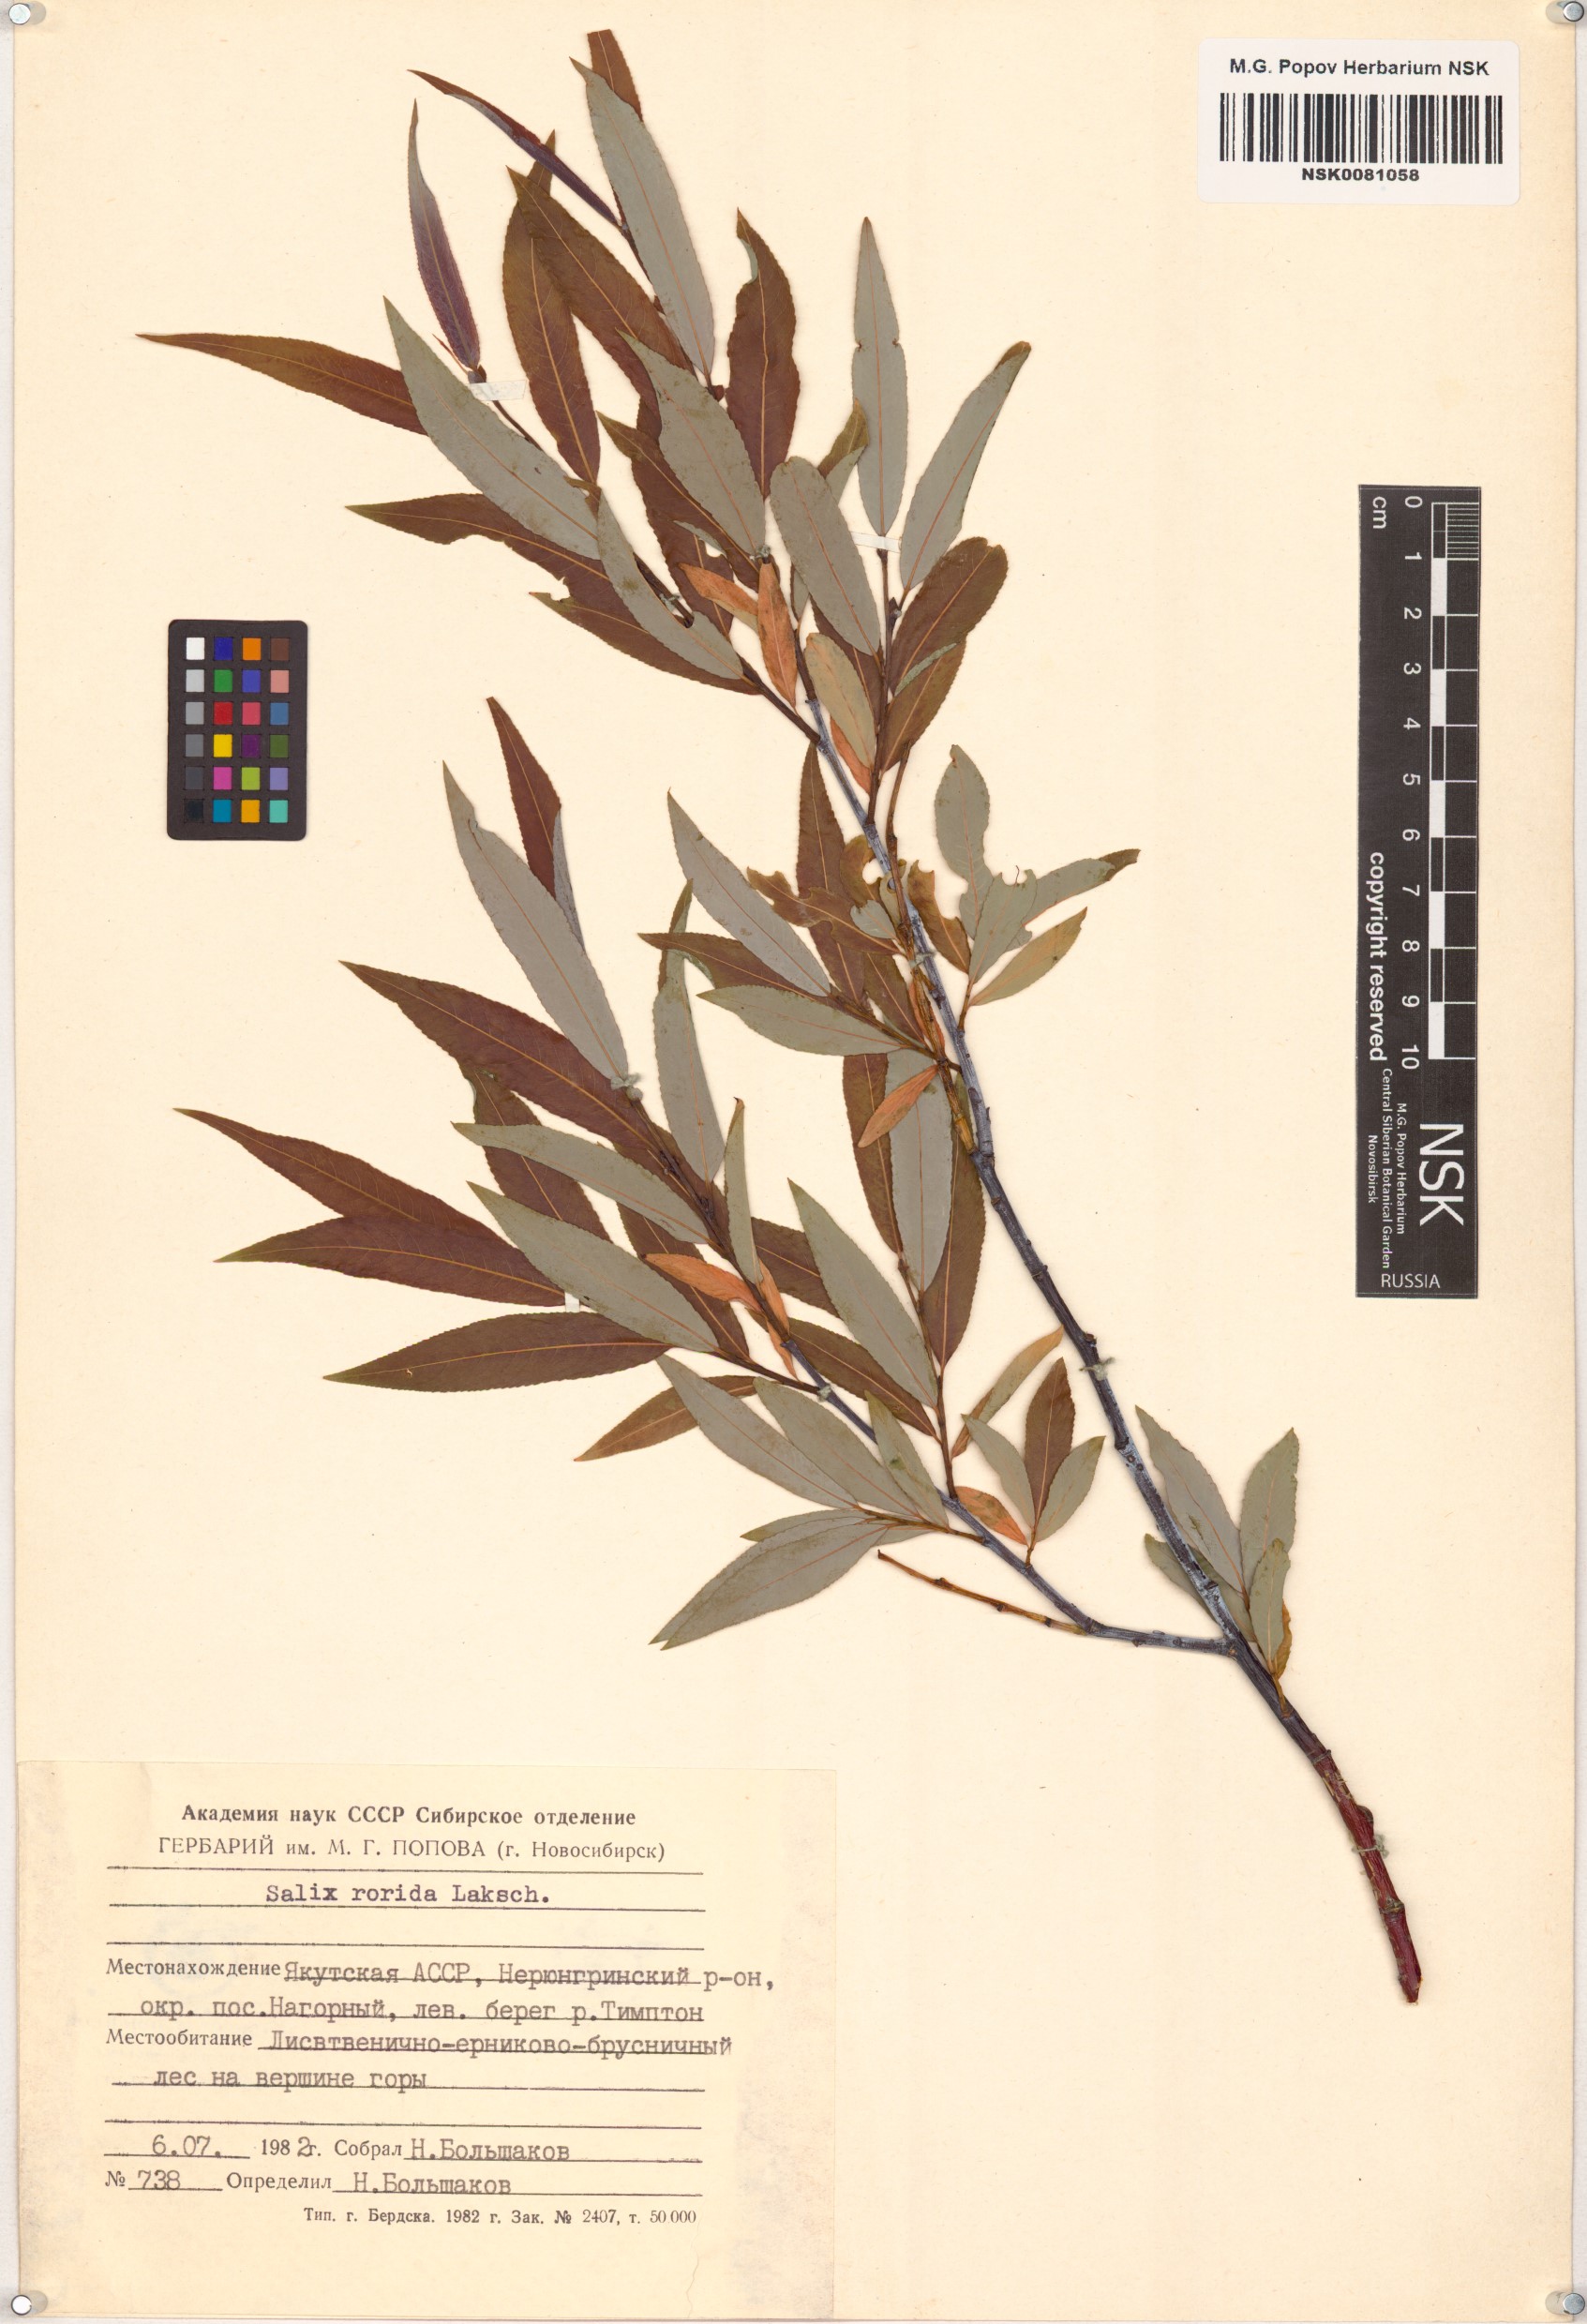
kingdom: Plantae
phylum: Tracheophyta
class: Magnoliopsida
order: Malpighiales
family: Salicaceae
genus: Salix
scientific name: Salix rorida
